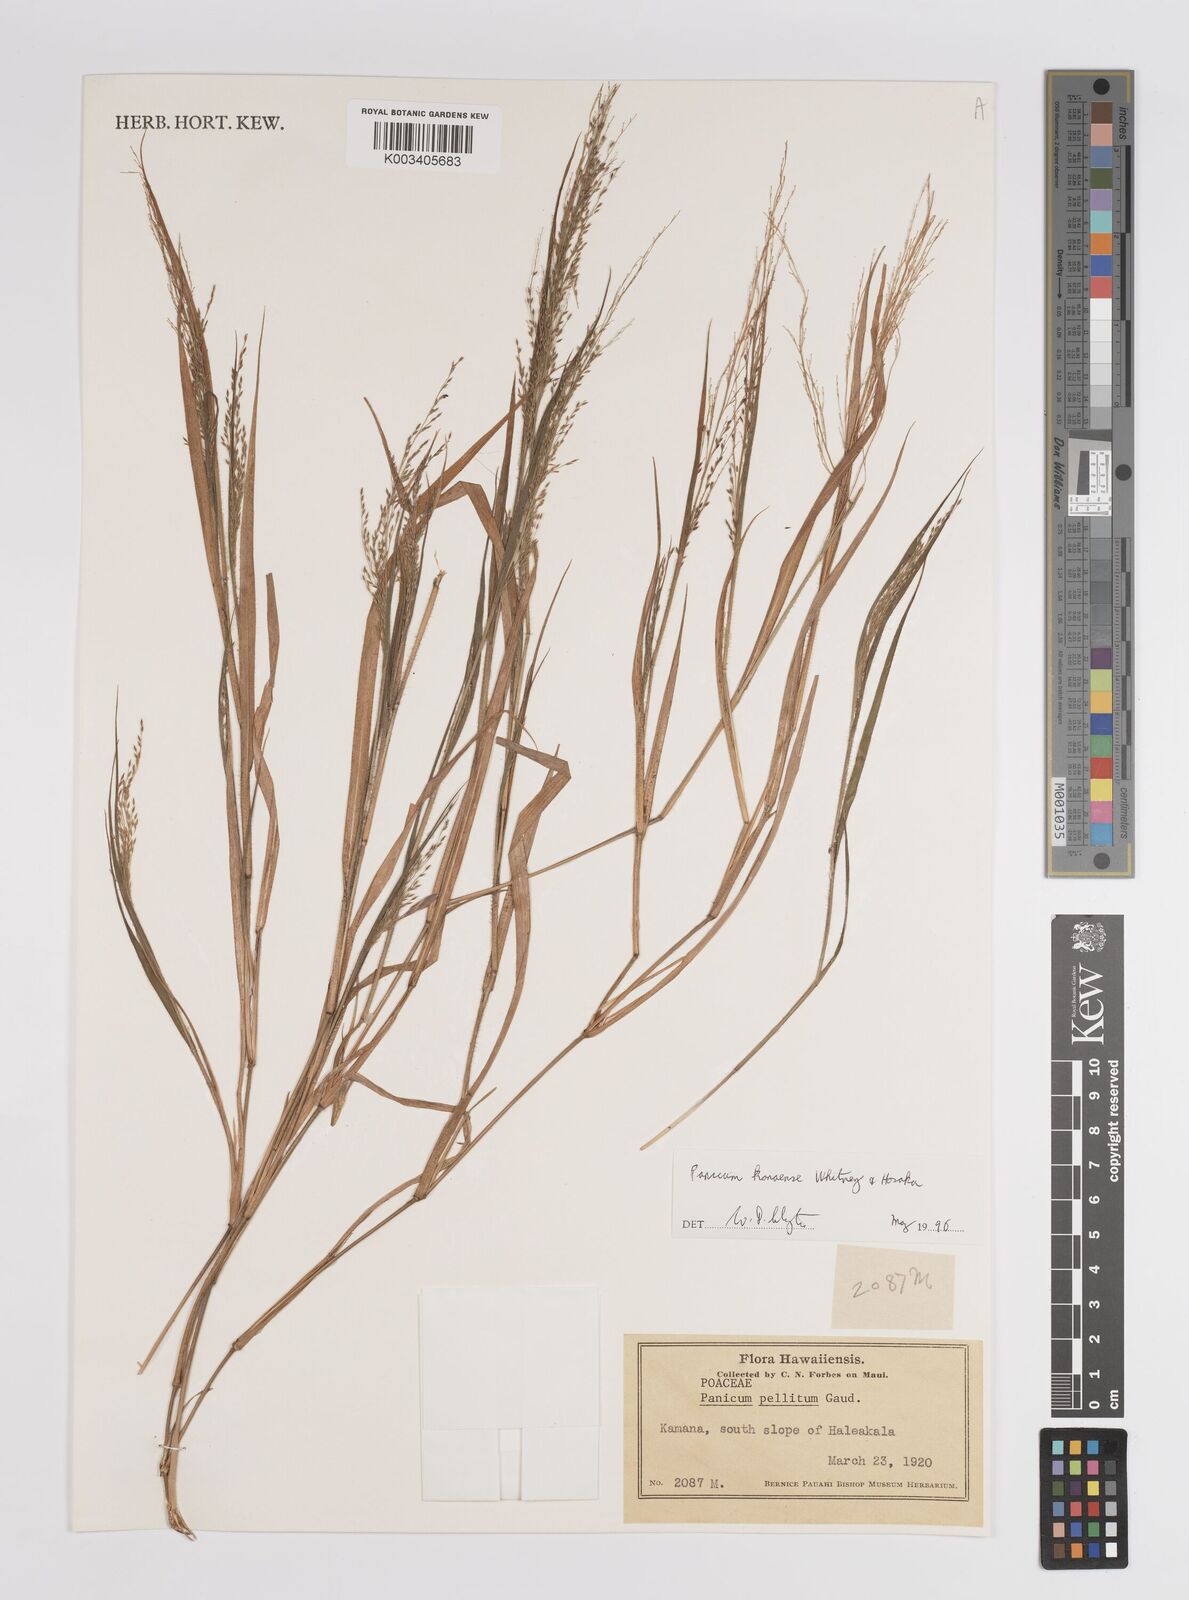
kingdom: Plantae
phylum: Tracheophyta
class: Liliopsida
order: Poales
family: Poaceae
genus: Panicum
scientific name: Panicum konaense
